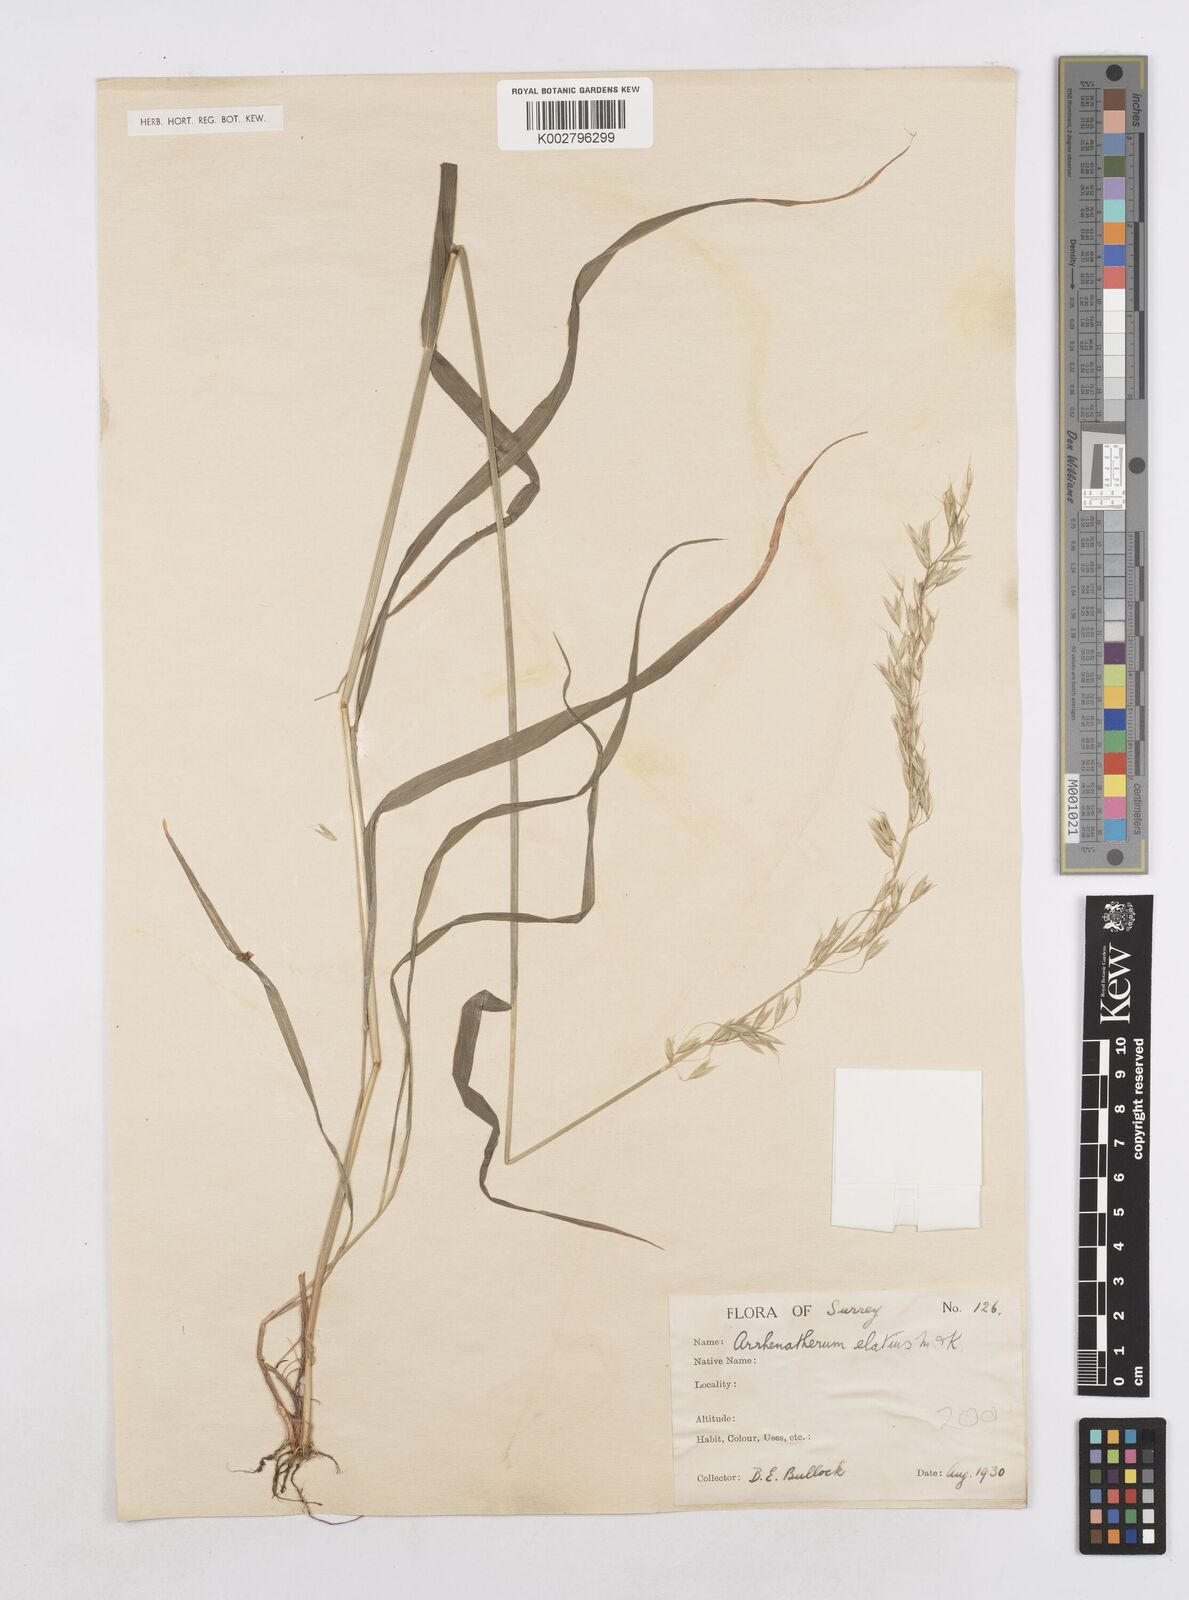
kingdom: Plantae
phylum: Tracheophyta
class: Liliopsida
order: Poales
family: Poaceae
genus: Arrhenatherum
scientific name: Arrhenatherum elatius
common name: Tall oatgrass
